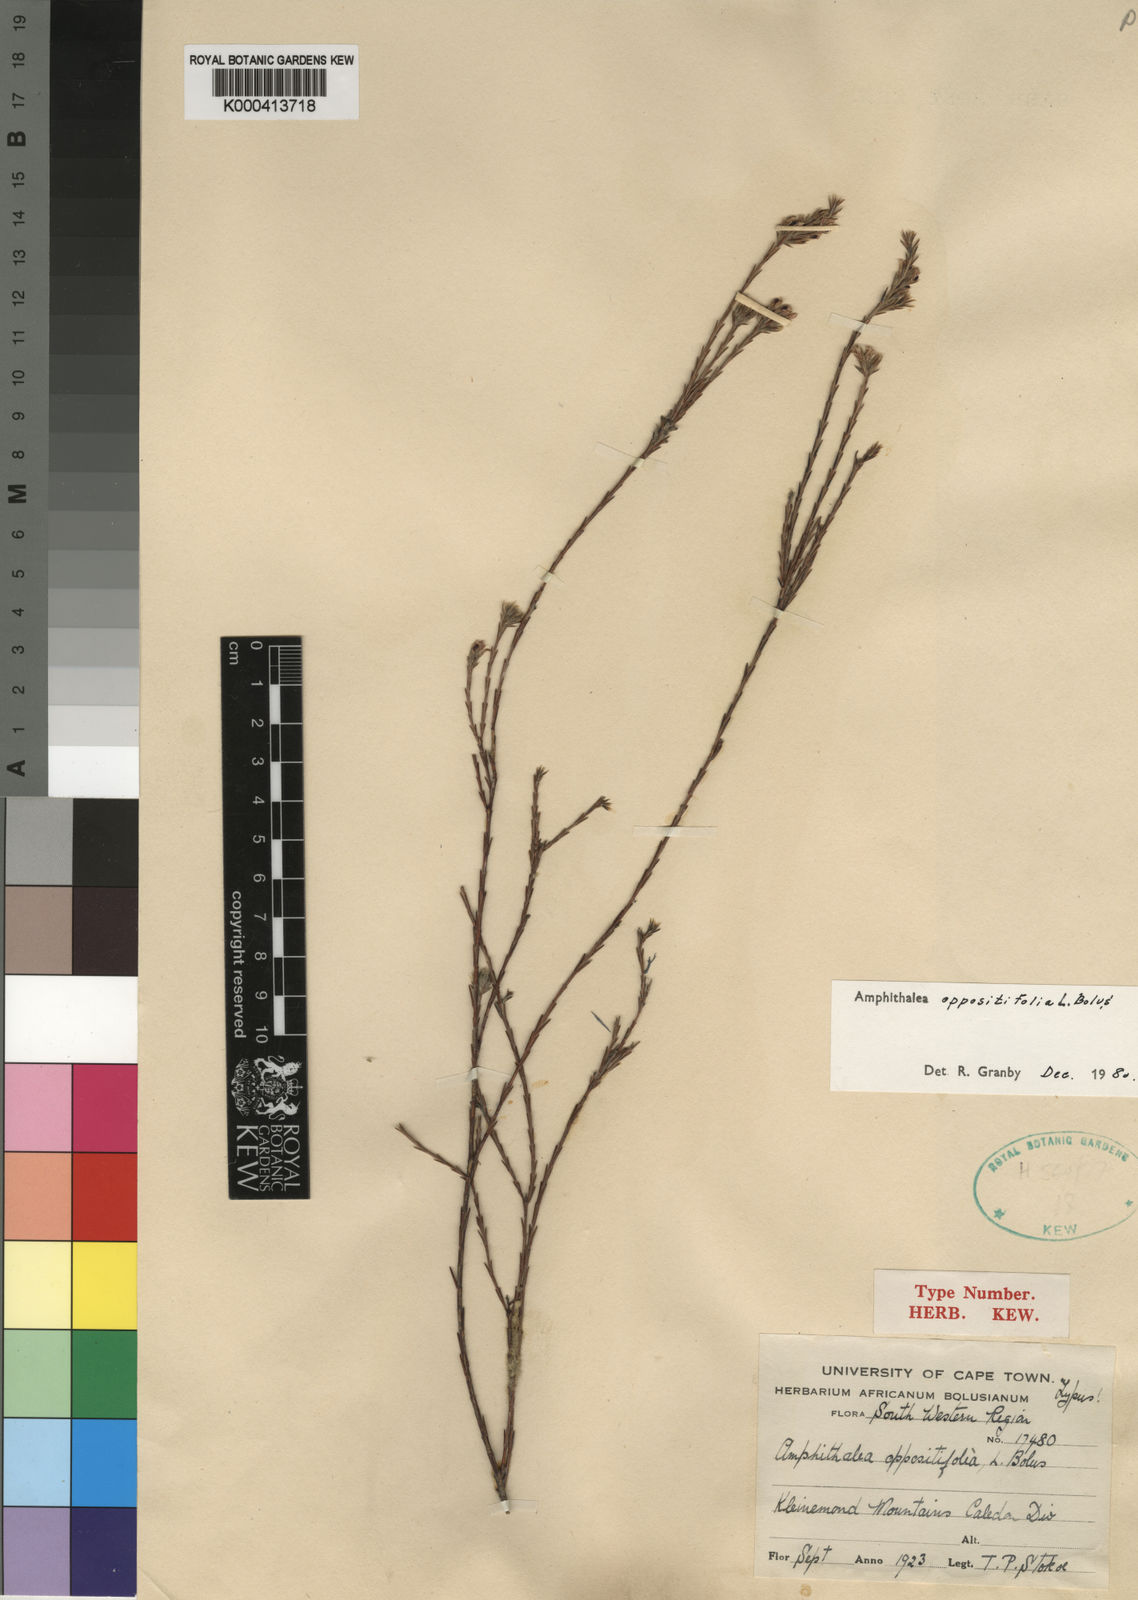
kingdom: Plantae
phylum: Tracheophyta
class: Magnoliopsida
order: Fabales
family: Fabaceae
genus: Amphithalea
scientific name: Amphithalea villosa
